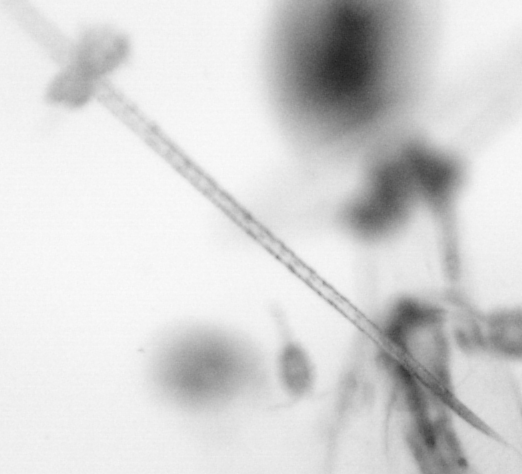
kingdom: Animalia
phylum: Arthropoda
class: Copepoda
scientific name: Copepoda
